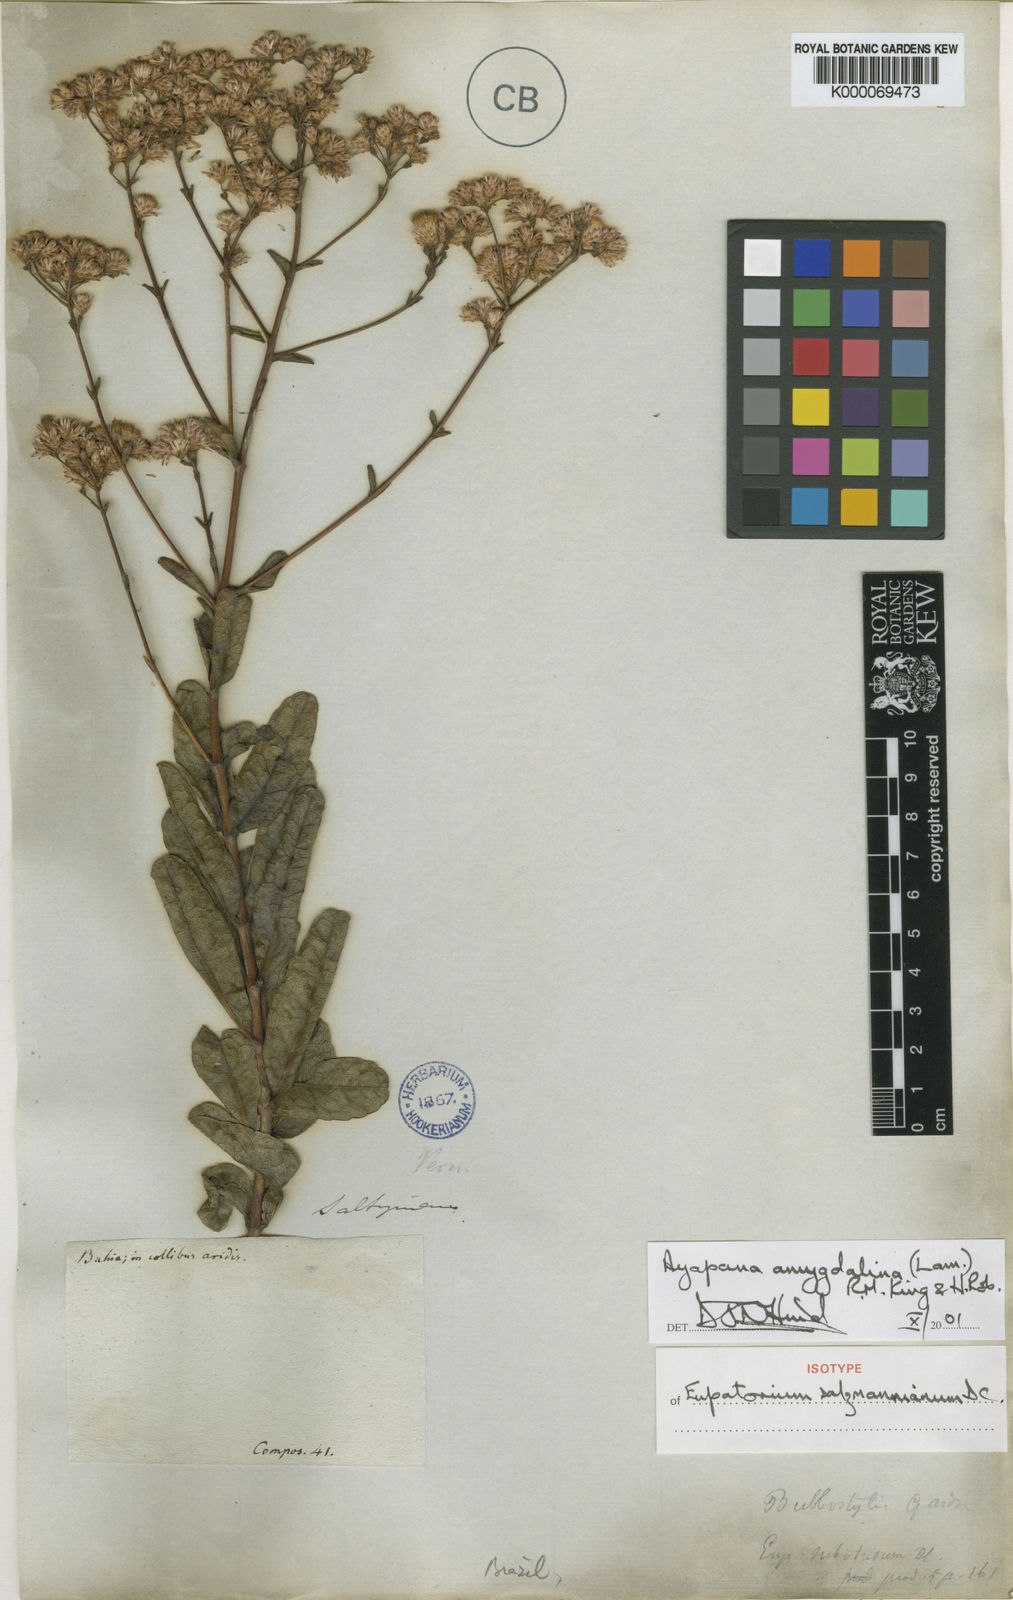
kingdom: Plantae
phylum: Tracheophyta
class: Magnoliopsida
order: Asterales
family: Asteraceae
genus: Ayapana
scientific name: Ayapana amygdalina
